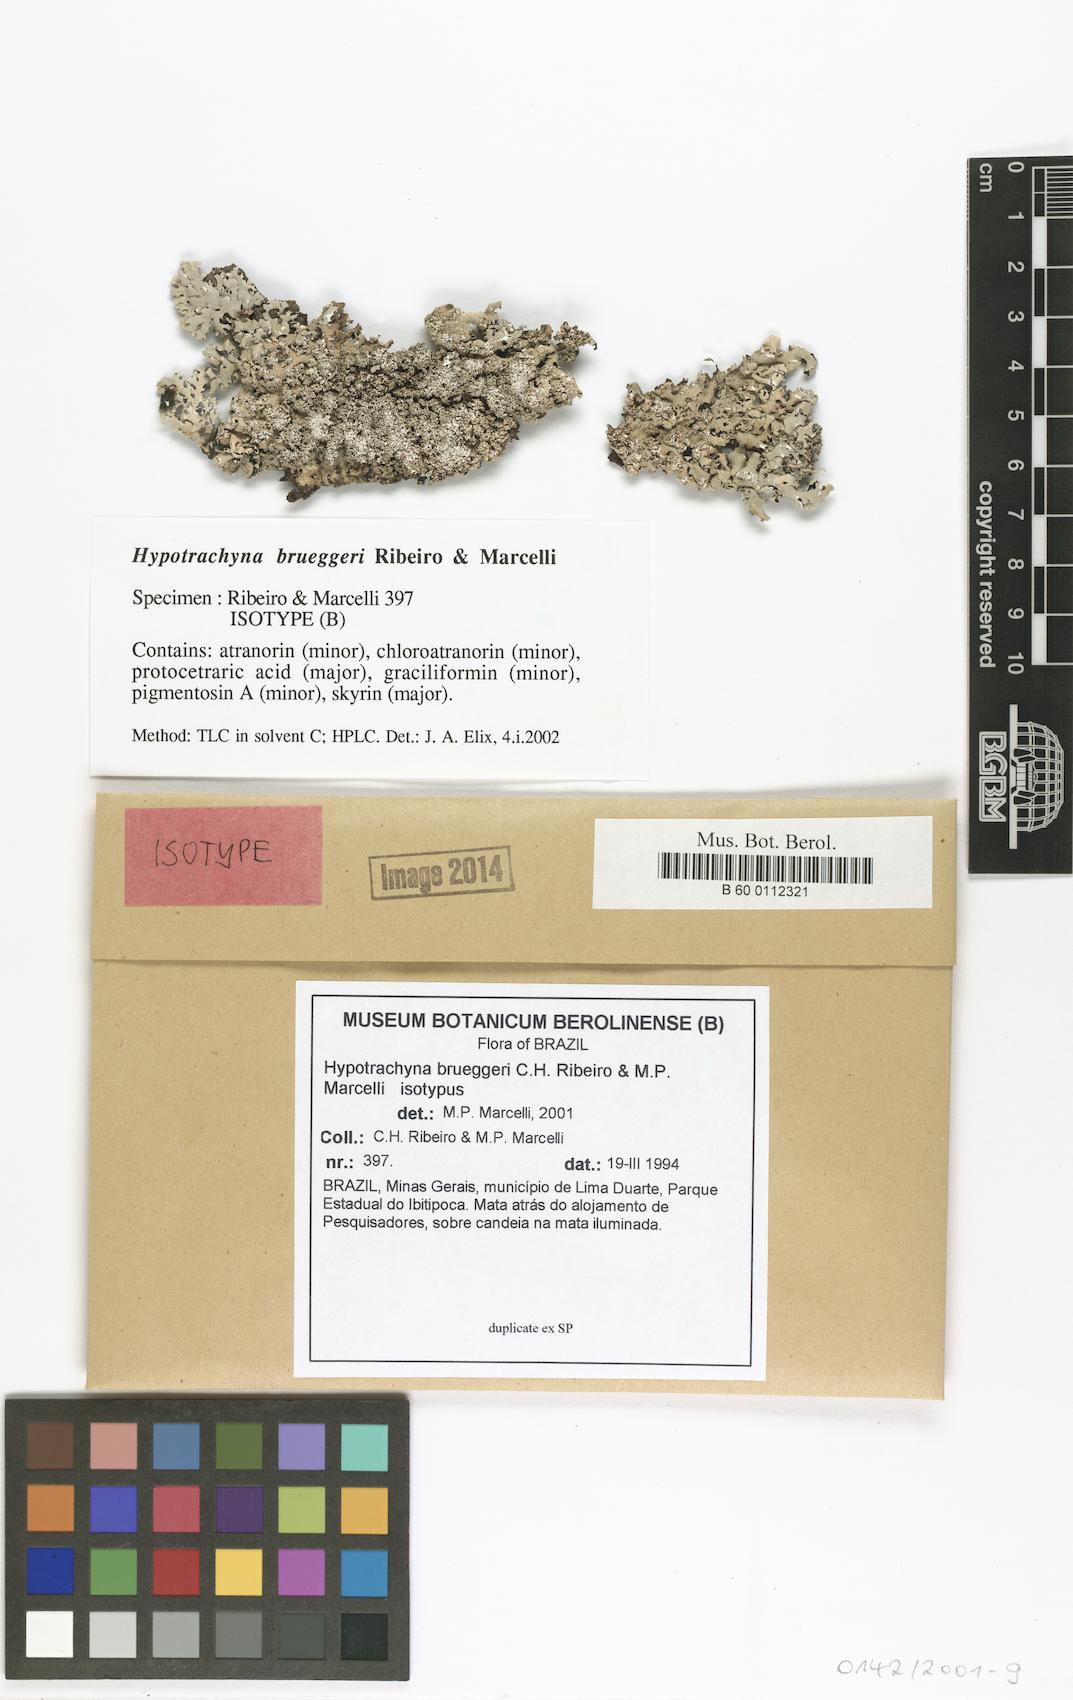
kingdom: Fungi
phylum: Ascomycota
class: Lecanoromycetes
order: Lecanorales
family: Parmeliaceae
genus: Hypotrachyna
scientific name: Hypotrachyna brueggeri
